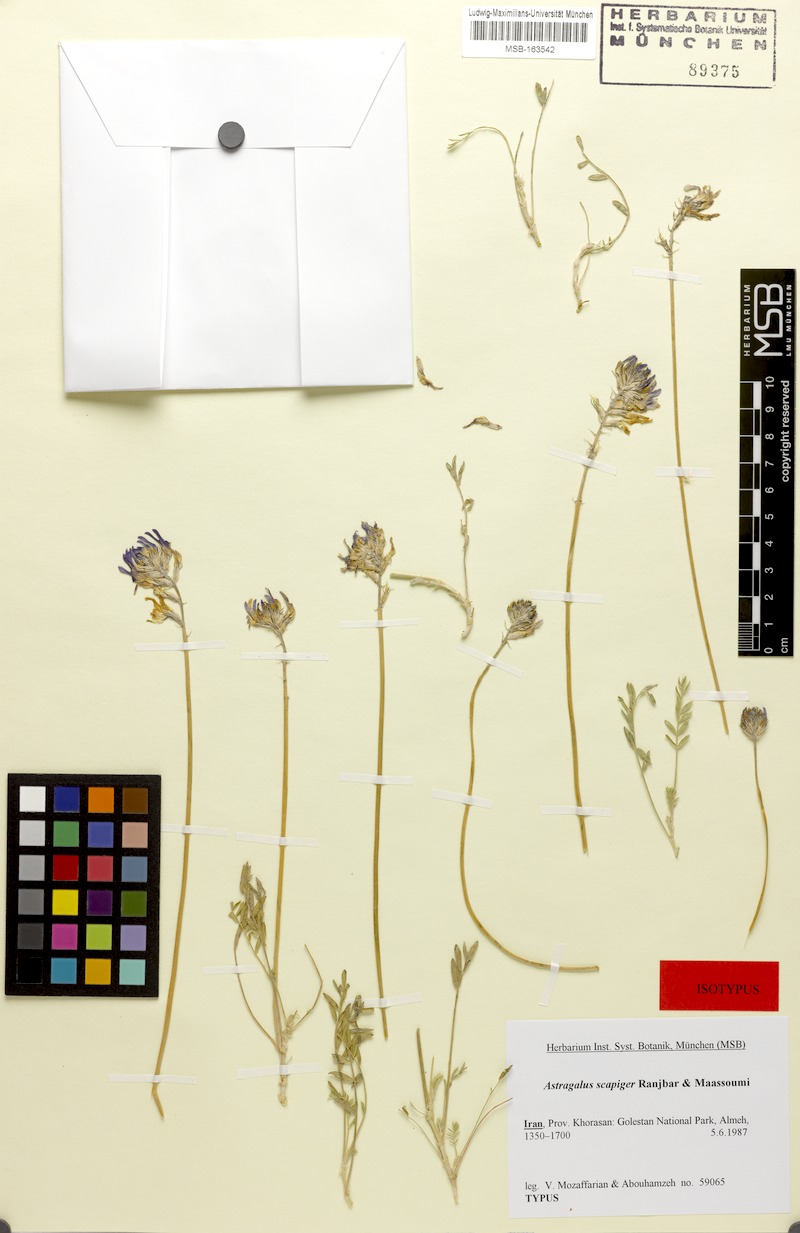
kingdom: Plantae
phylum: Tracheophyta
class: Magnoliopsida
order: Fabales
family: Fabaceae
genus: Astragalus
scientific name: Astragalus scapiger
